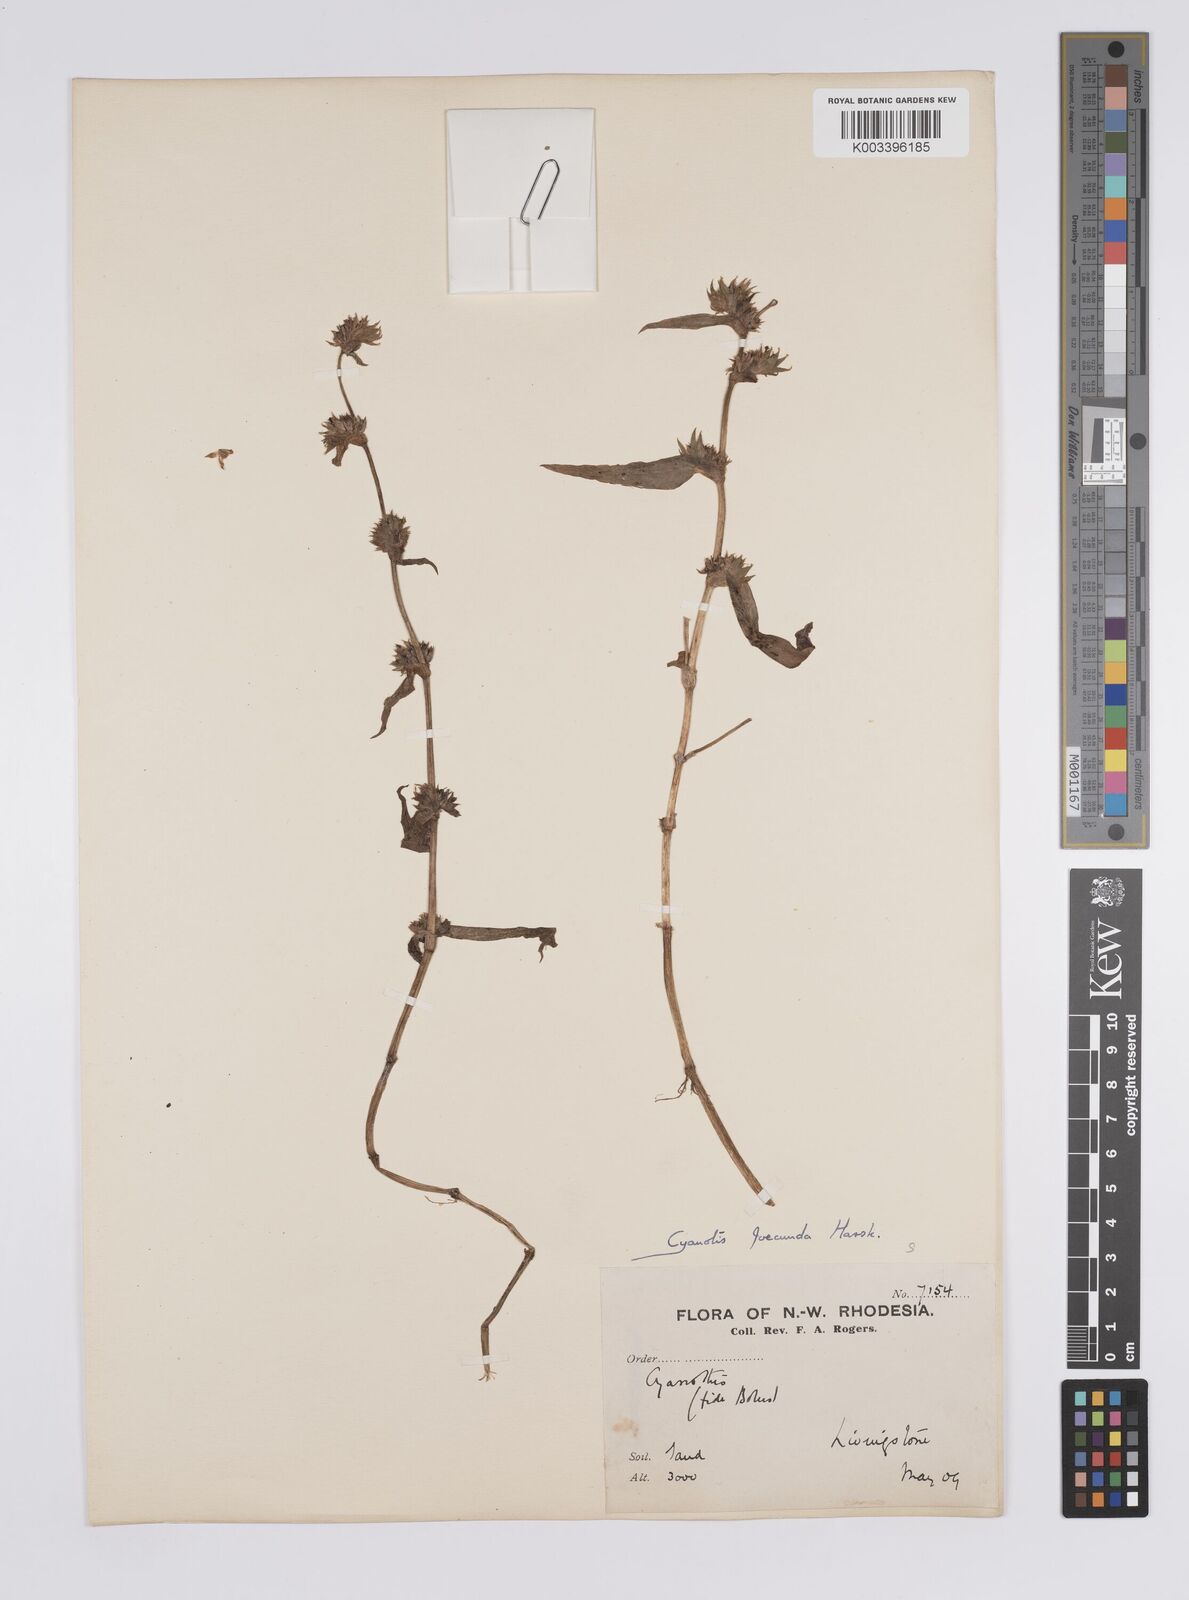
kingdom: Plantae
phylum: Tracheophyta
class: Liliopsida
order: Commelinales
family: Commelinaceae
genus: Cyanotis
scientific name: Cyanotis foecunda
